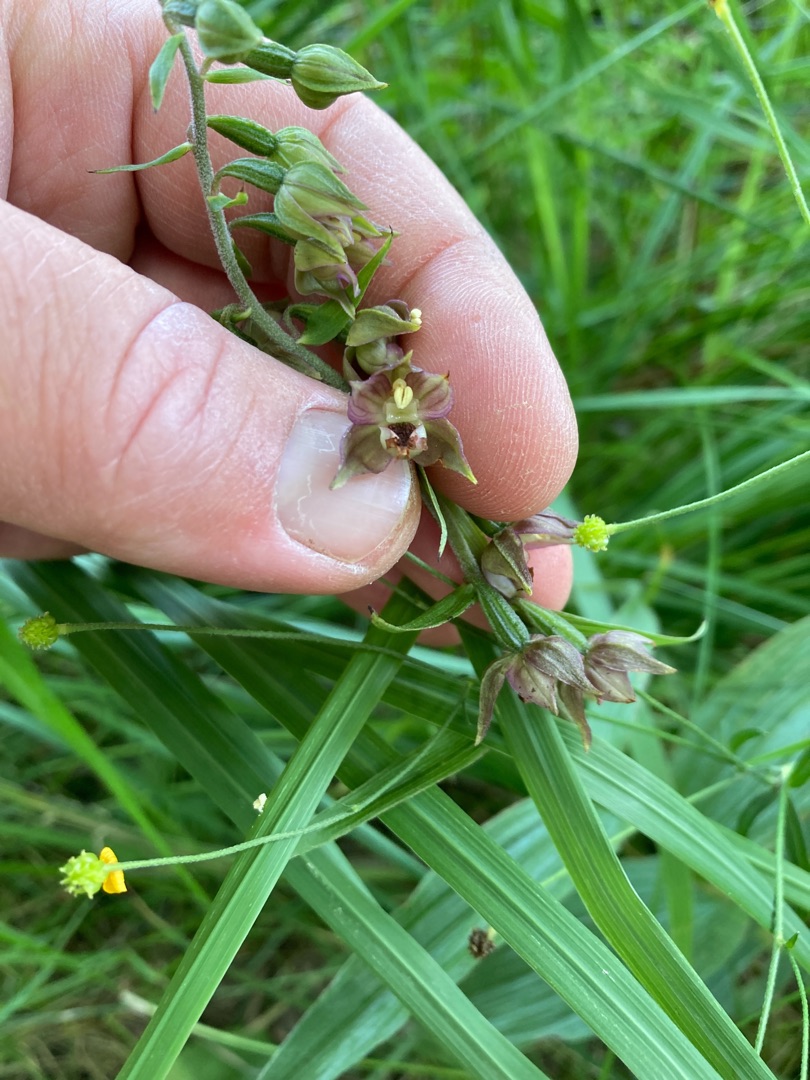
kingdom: Plantae
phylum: Tracheophyta
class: Liliopsida
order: Asparagales
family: Orchidaceae
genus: Epipactis
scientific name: Epipactis helleborine
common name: Skov-hullæbe
